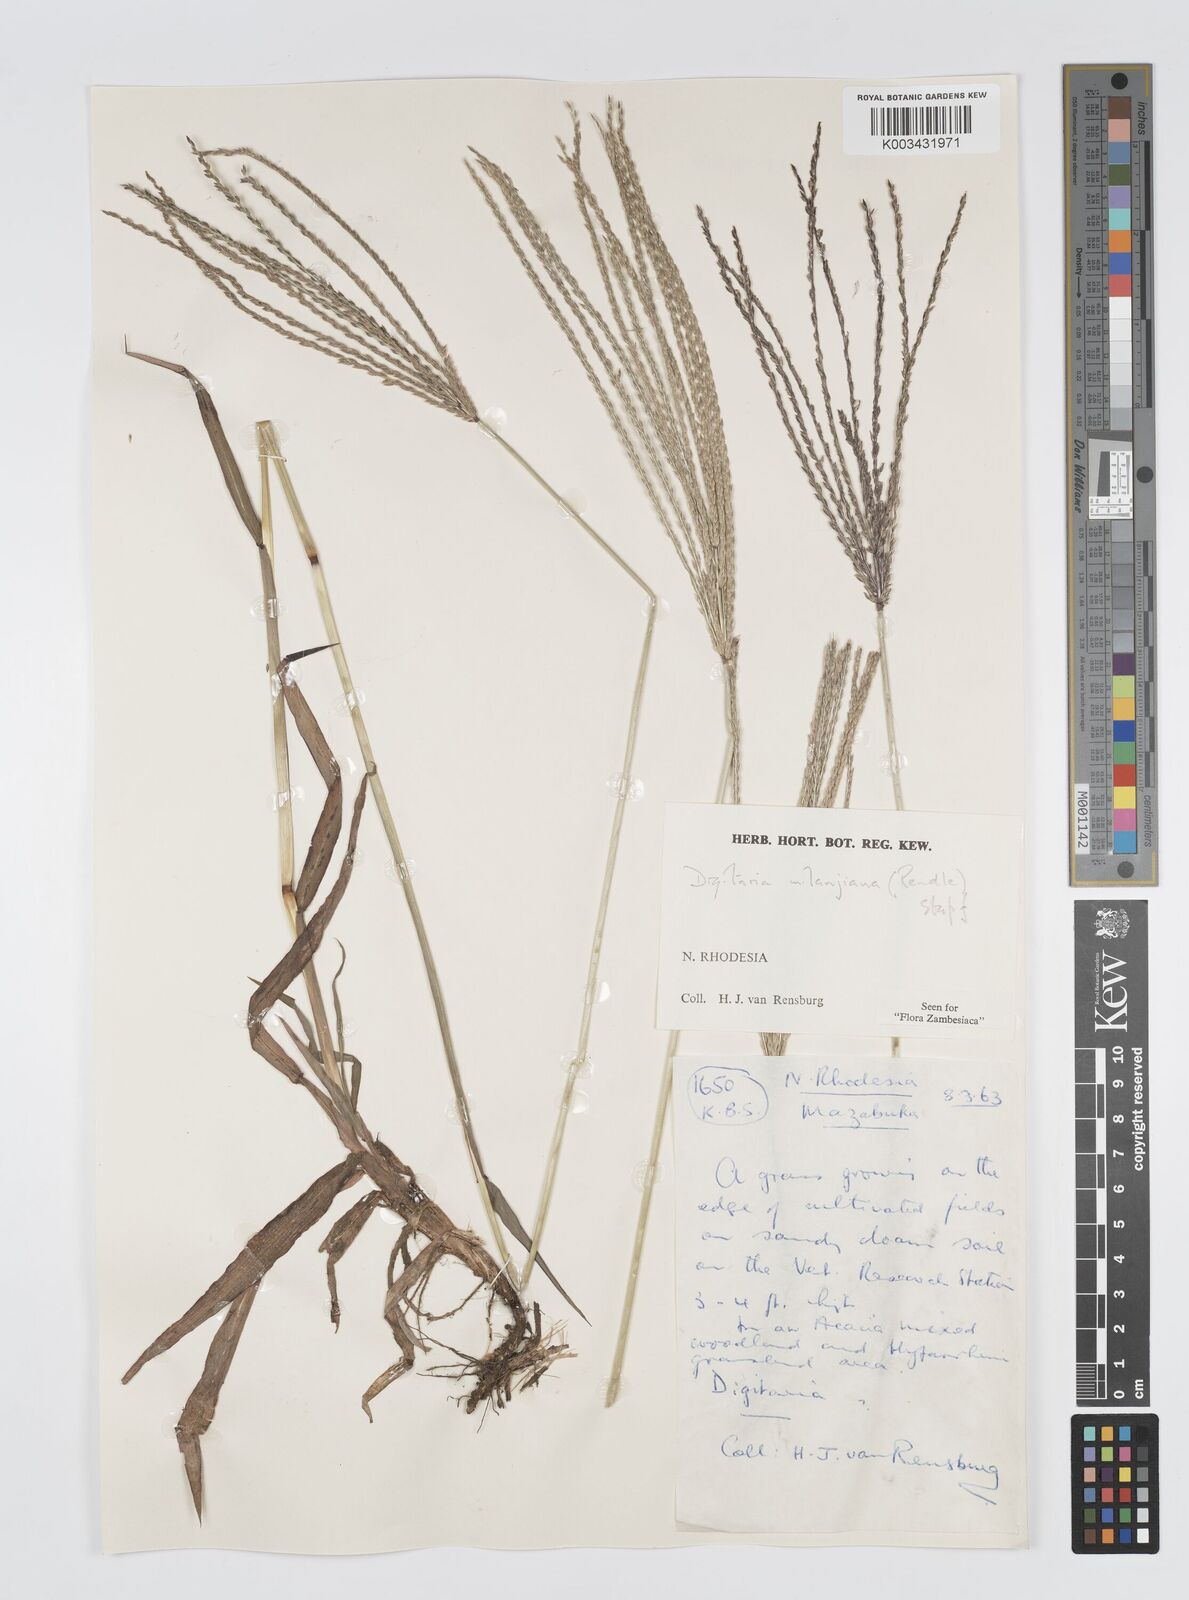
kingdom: Plantae
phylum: Tracheophyta
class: Liliopsida
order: Poales
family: Poaceae
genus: Digitaria
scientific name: Digitaria milanjiana
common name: Madagascar crabgrass
